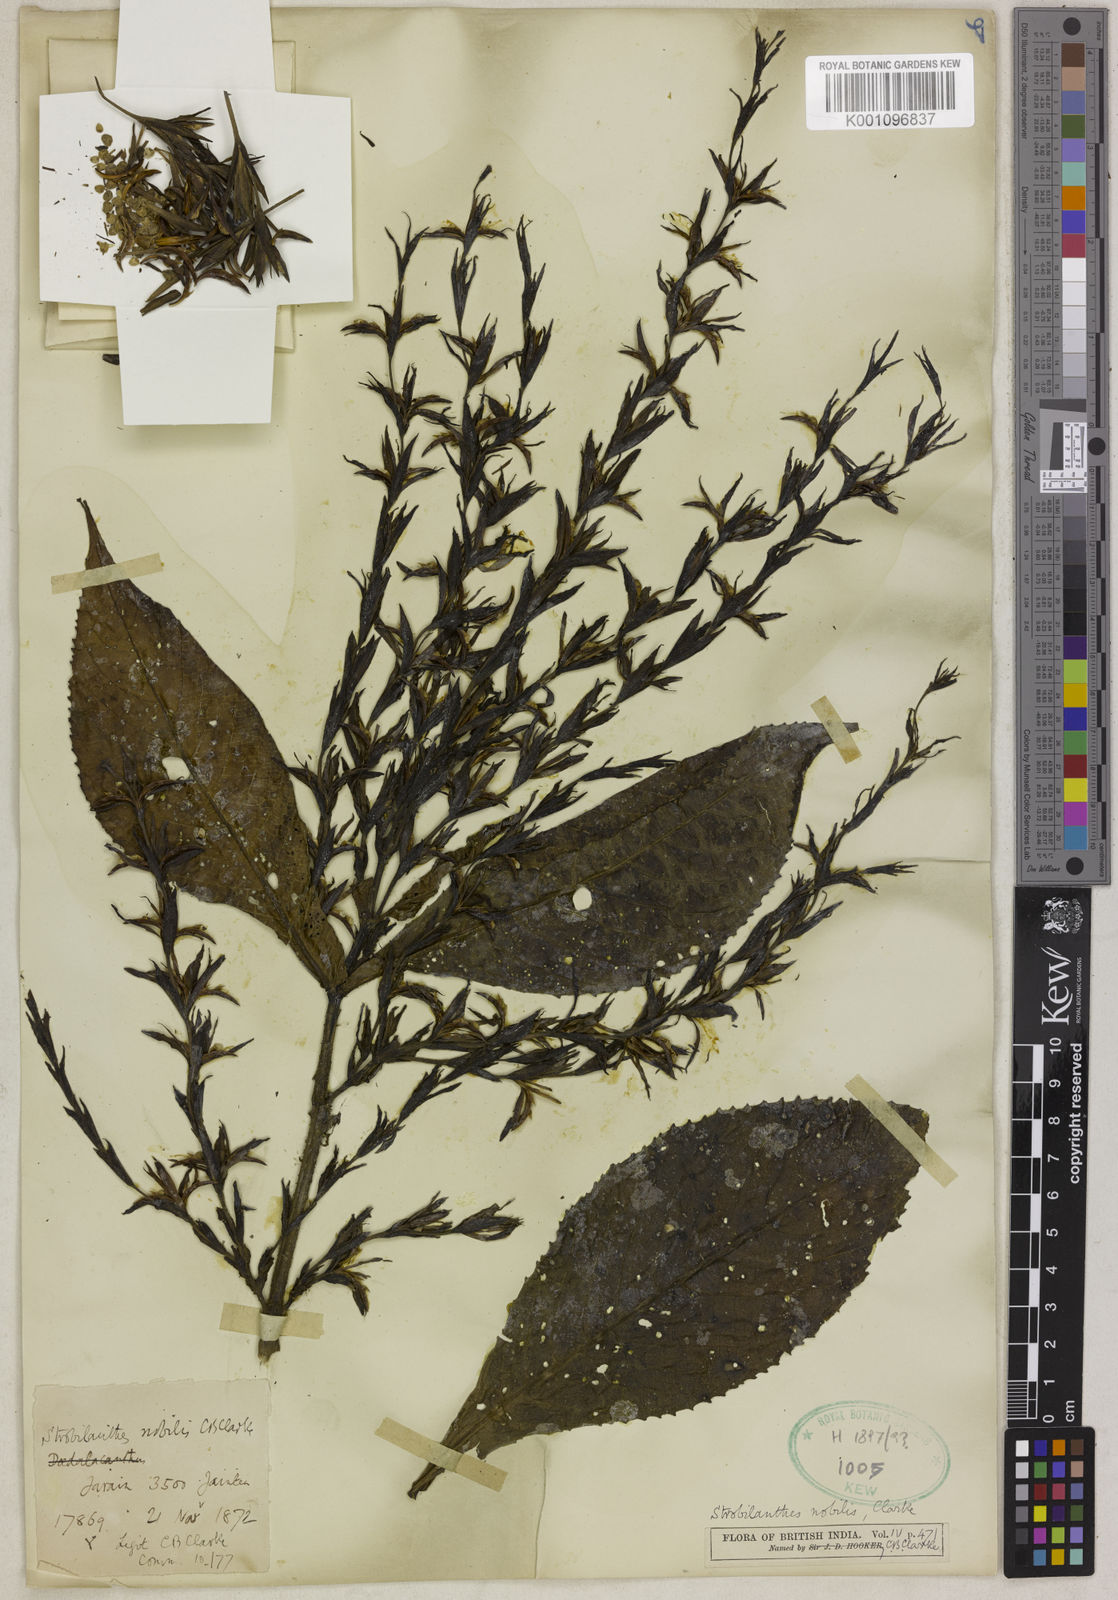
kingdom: Plantae
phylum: Tracheophyta
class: Magnoliopsida
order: Lamiales
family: Acanthaceae
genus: Strobilanthes
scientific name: Strobilanthes nobilis
